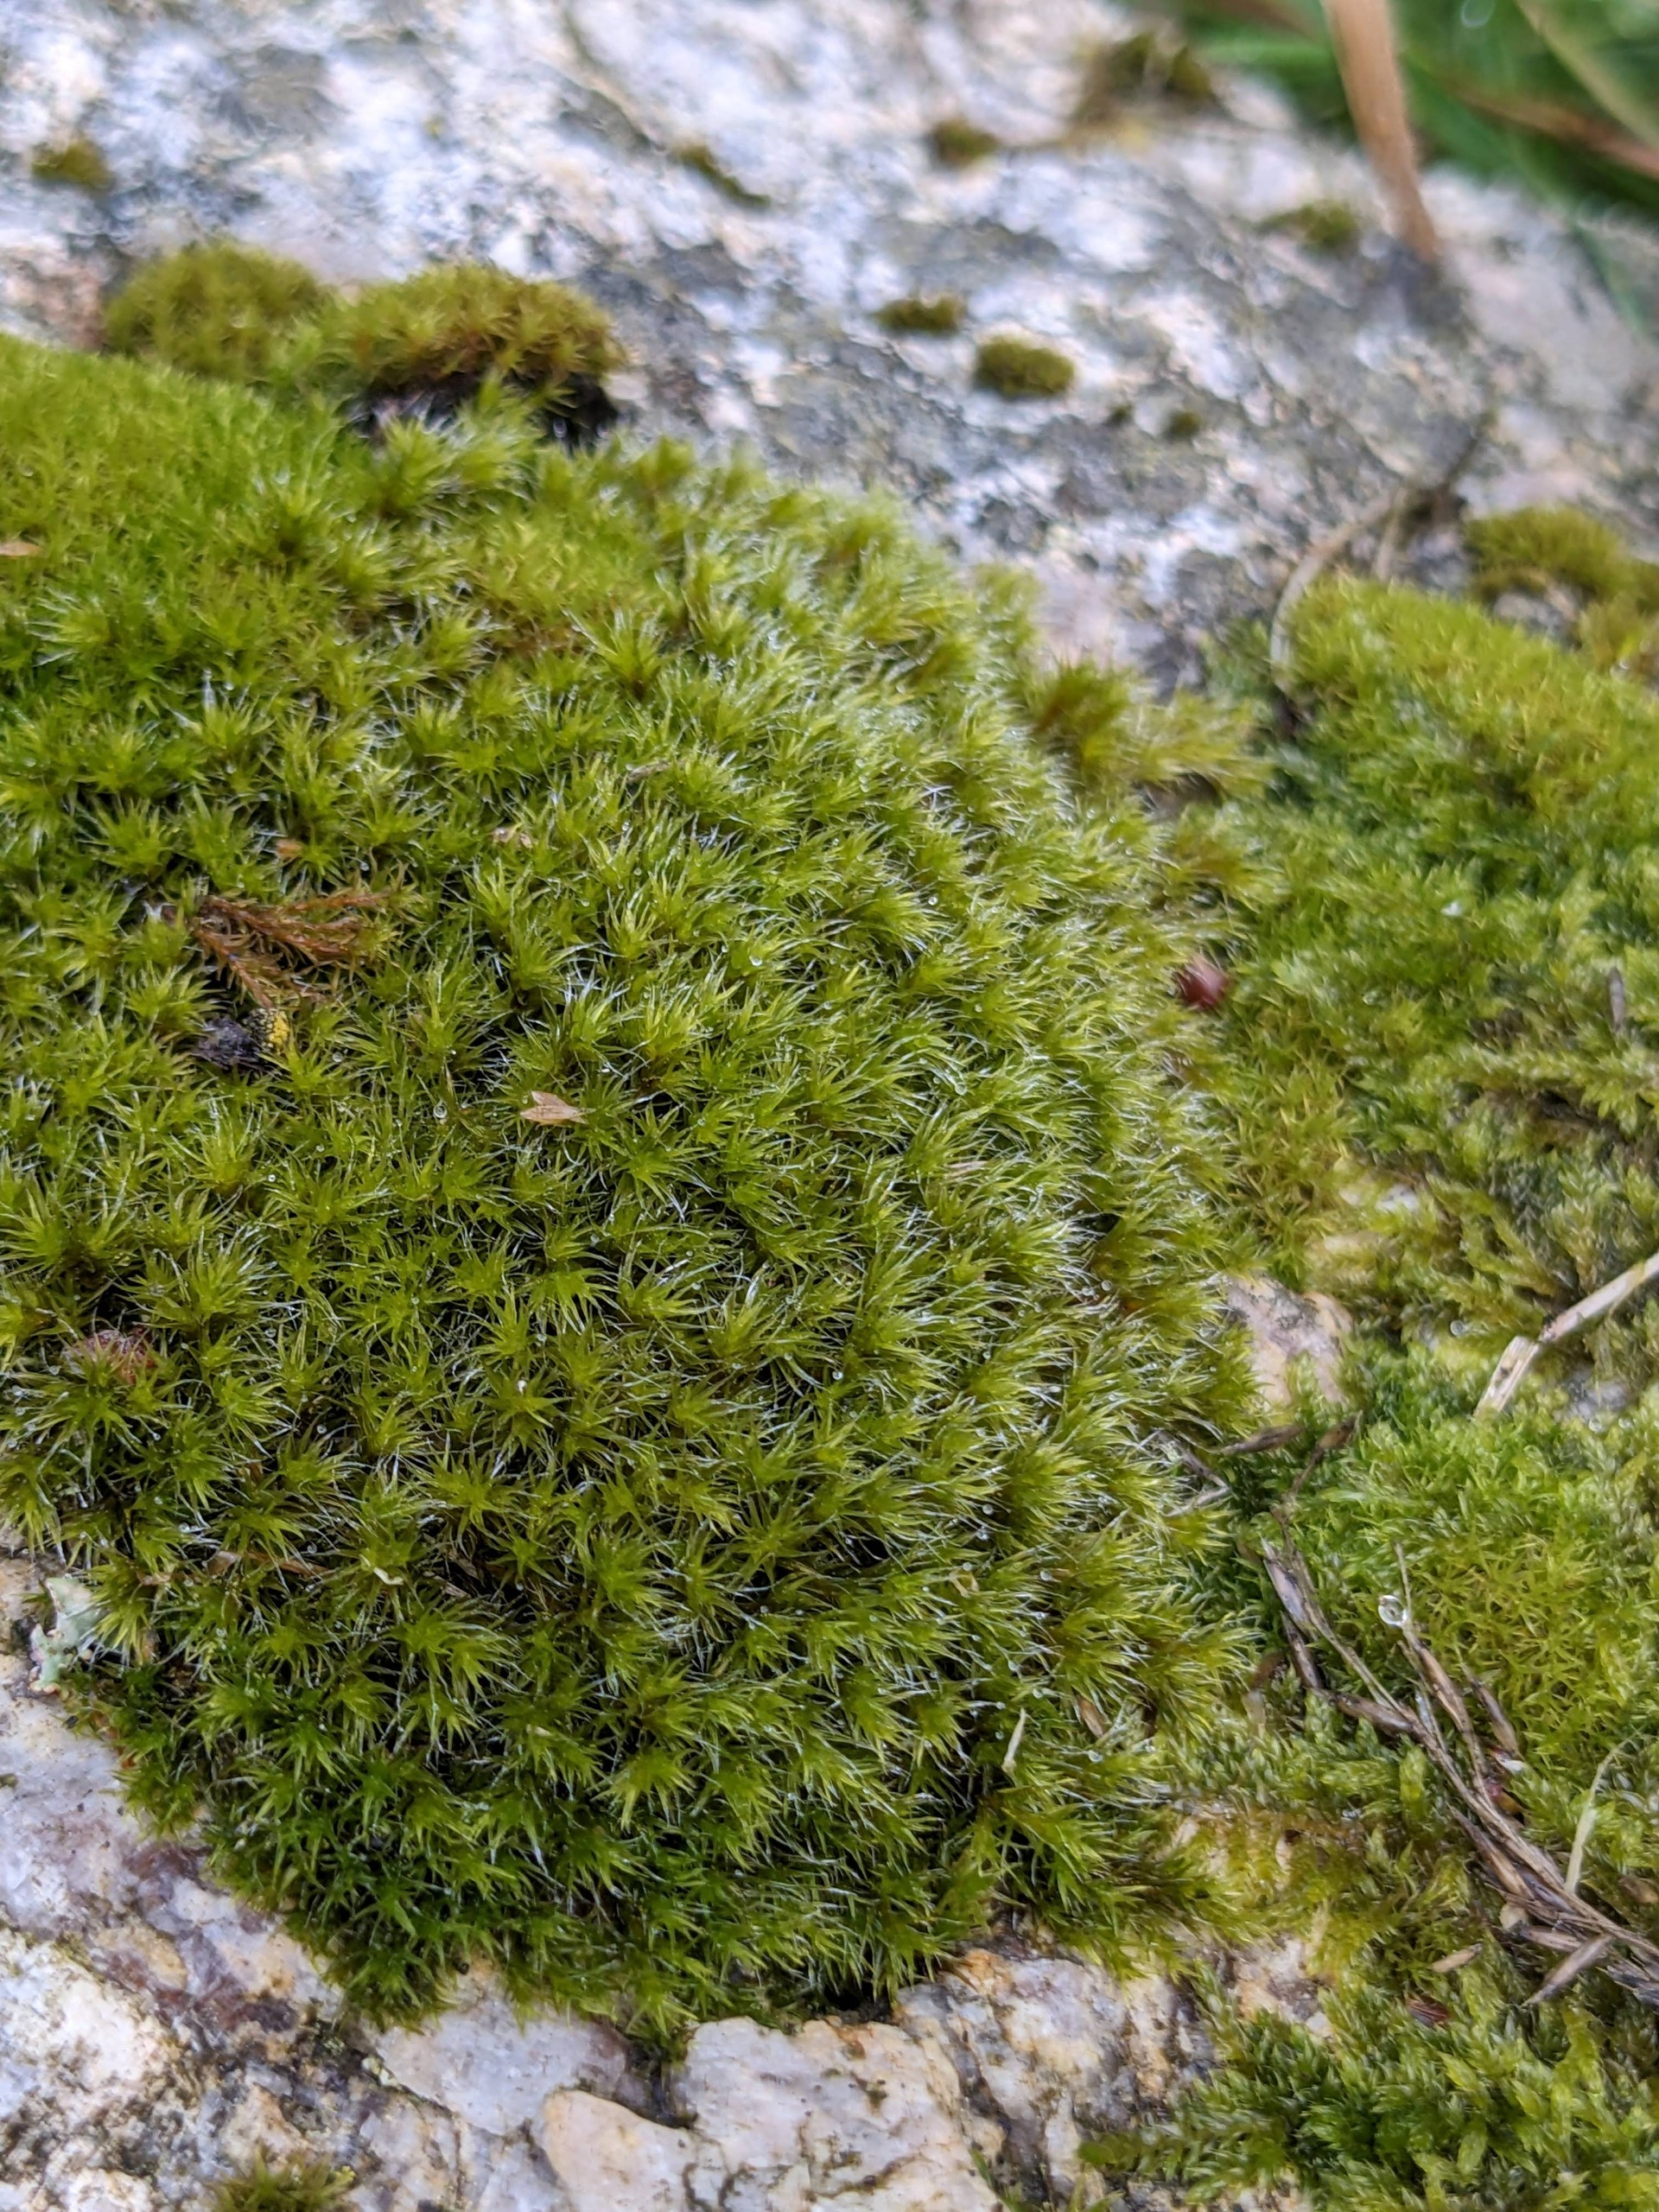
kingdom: Plantae
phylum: Bryophyta
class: Bryopsida
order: Grimmiales
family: Grimmiaceae
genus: Bucklandiella
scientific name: Bucklandiella heterosticha
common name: Sten-børstemos
